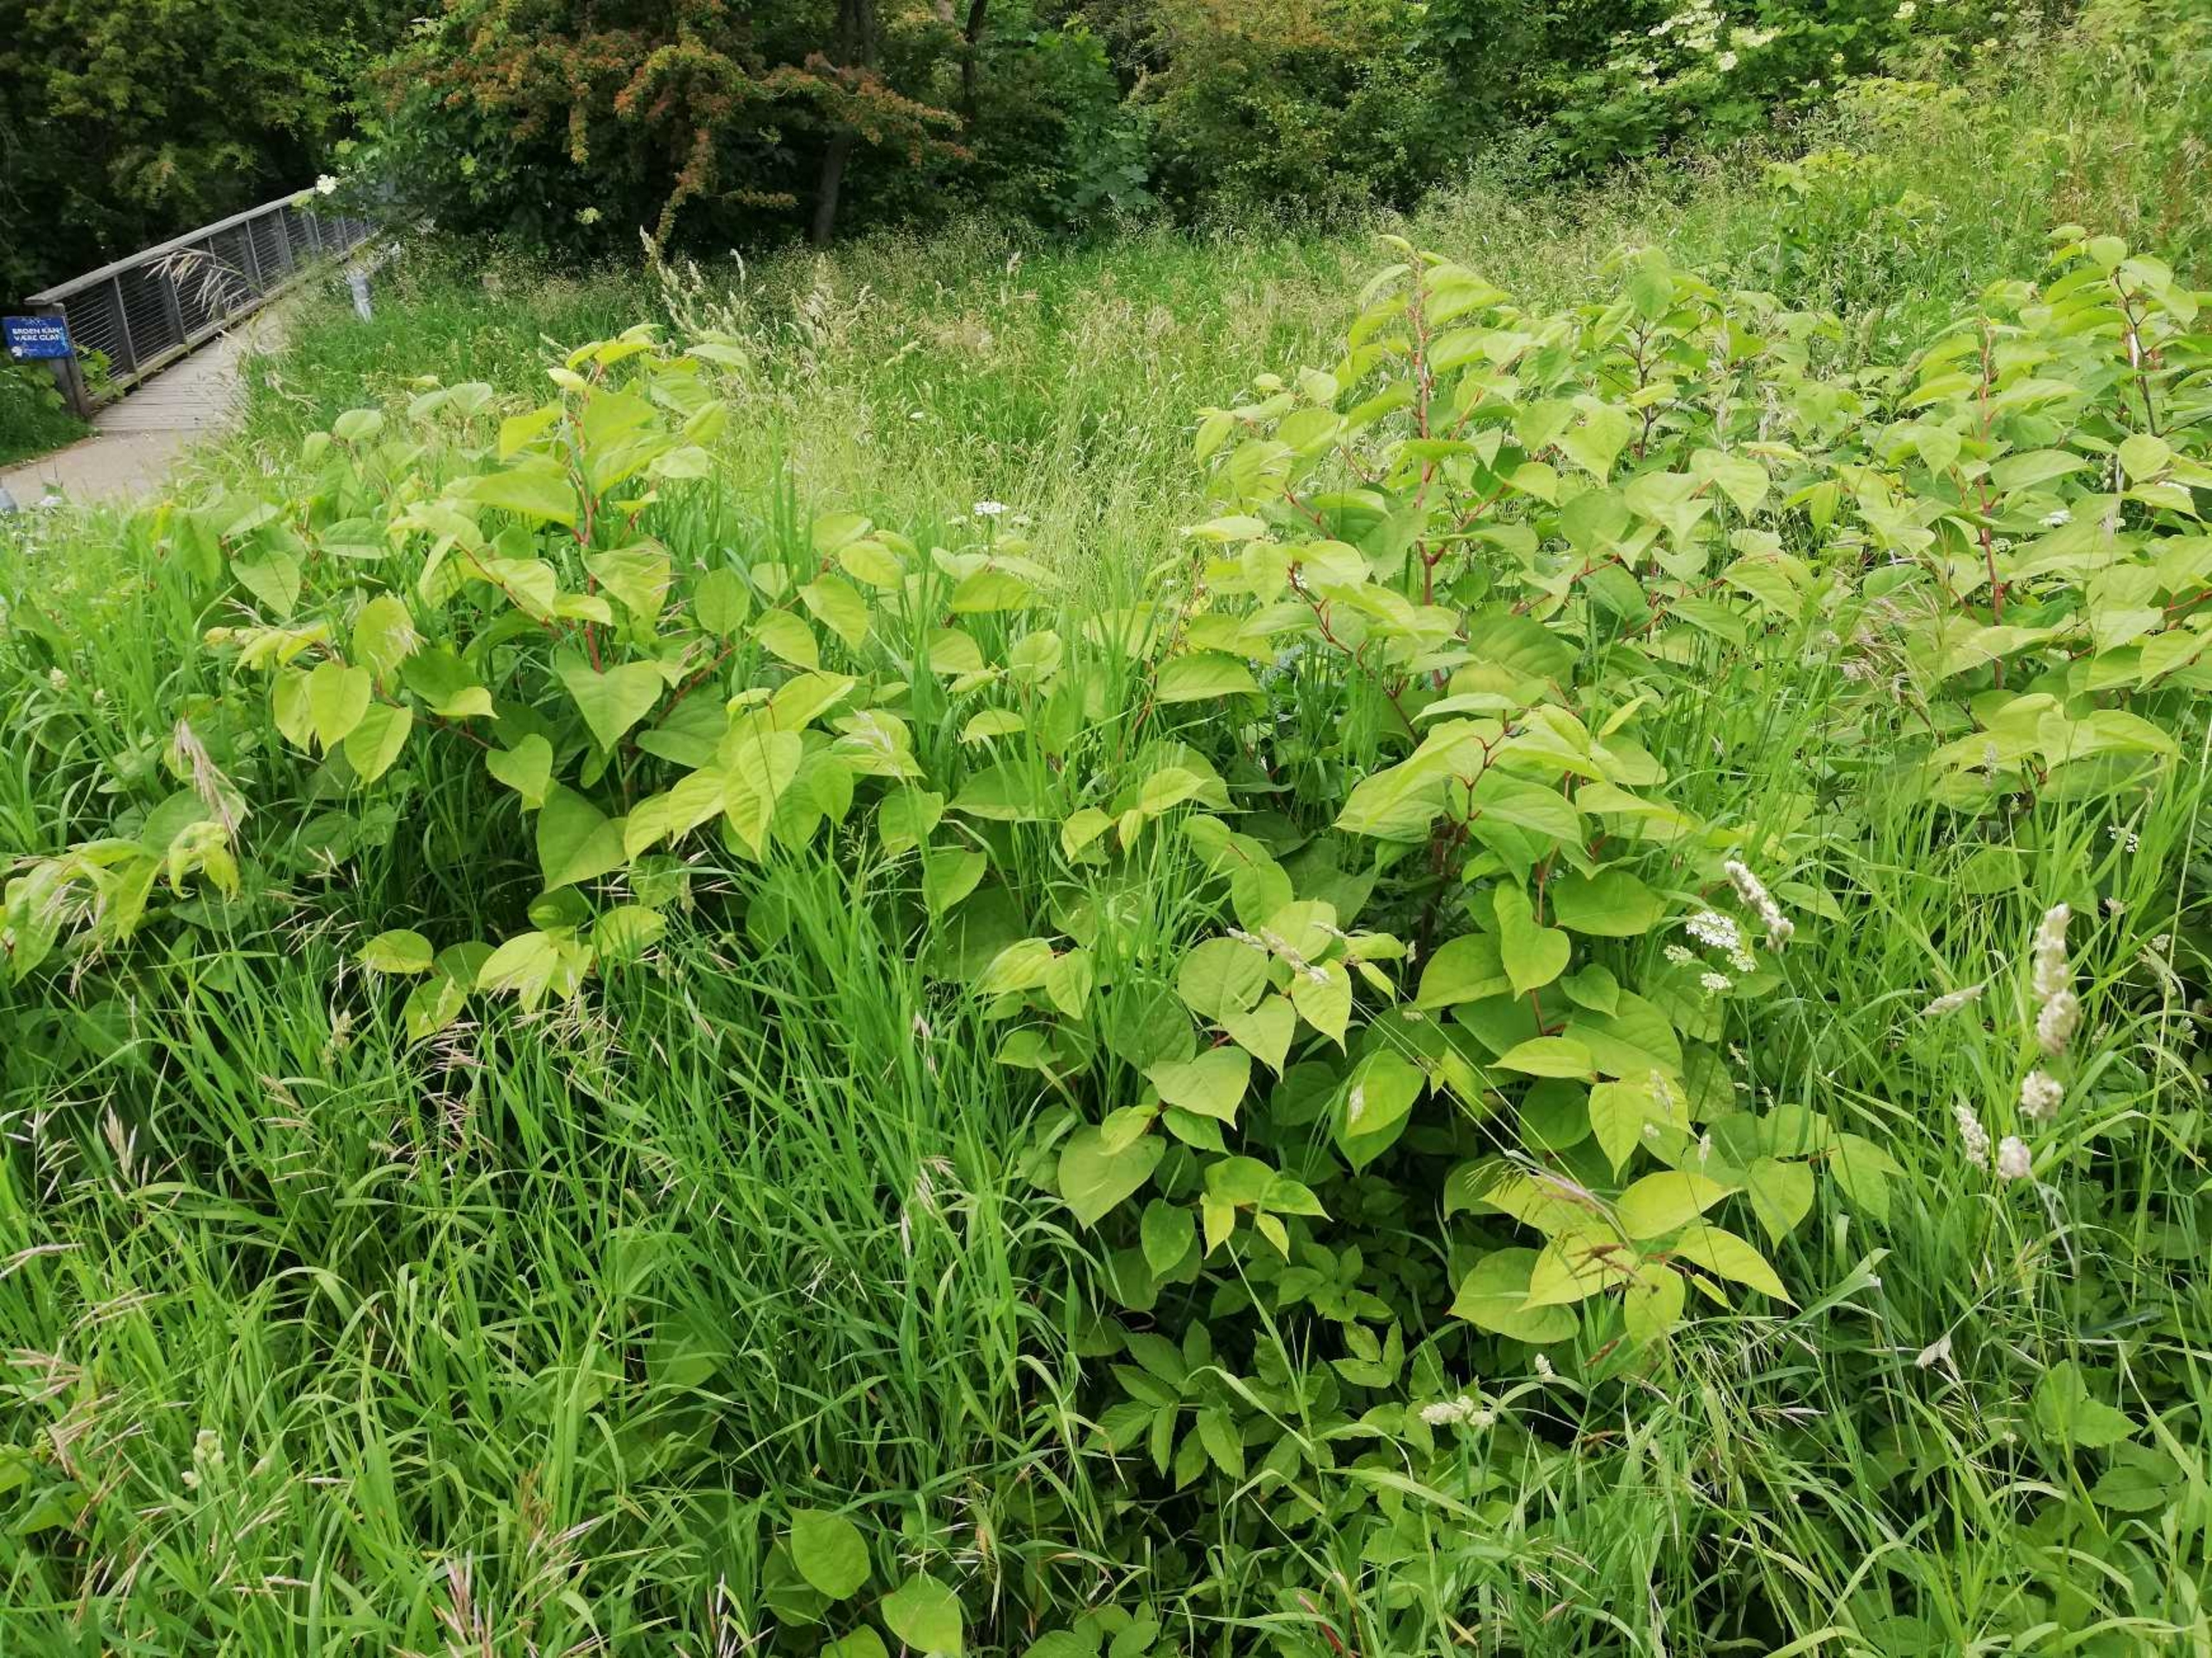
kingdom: Plantae
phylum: Tracheophyta
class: Magnoliopsida
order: Caryophyllales
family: Polygonaceae
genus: Reynoutria
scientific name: Reynoutria japonica
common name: Japan-pileurt
